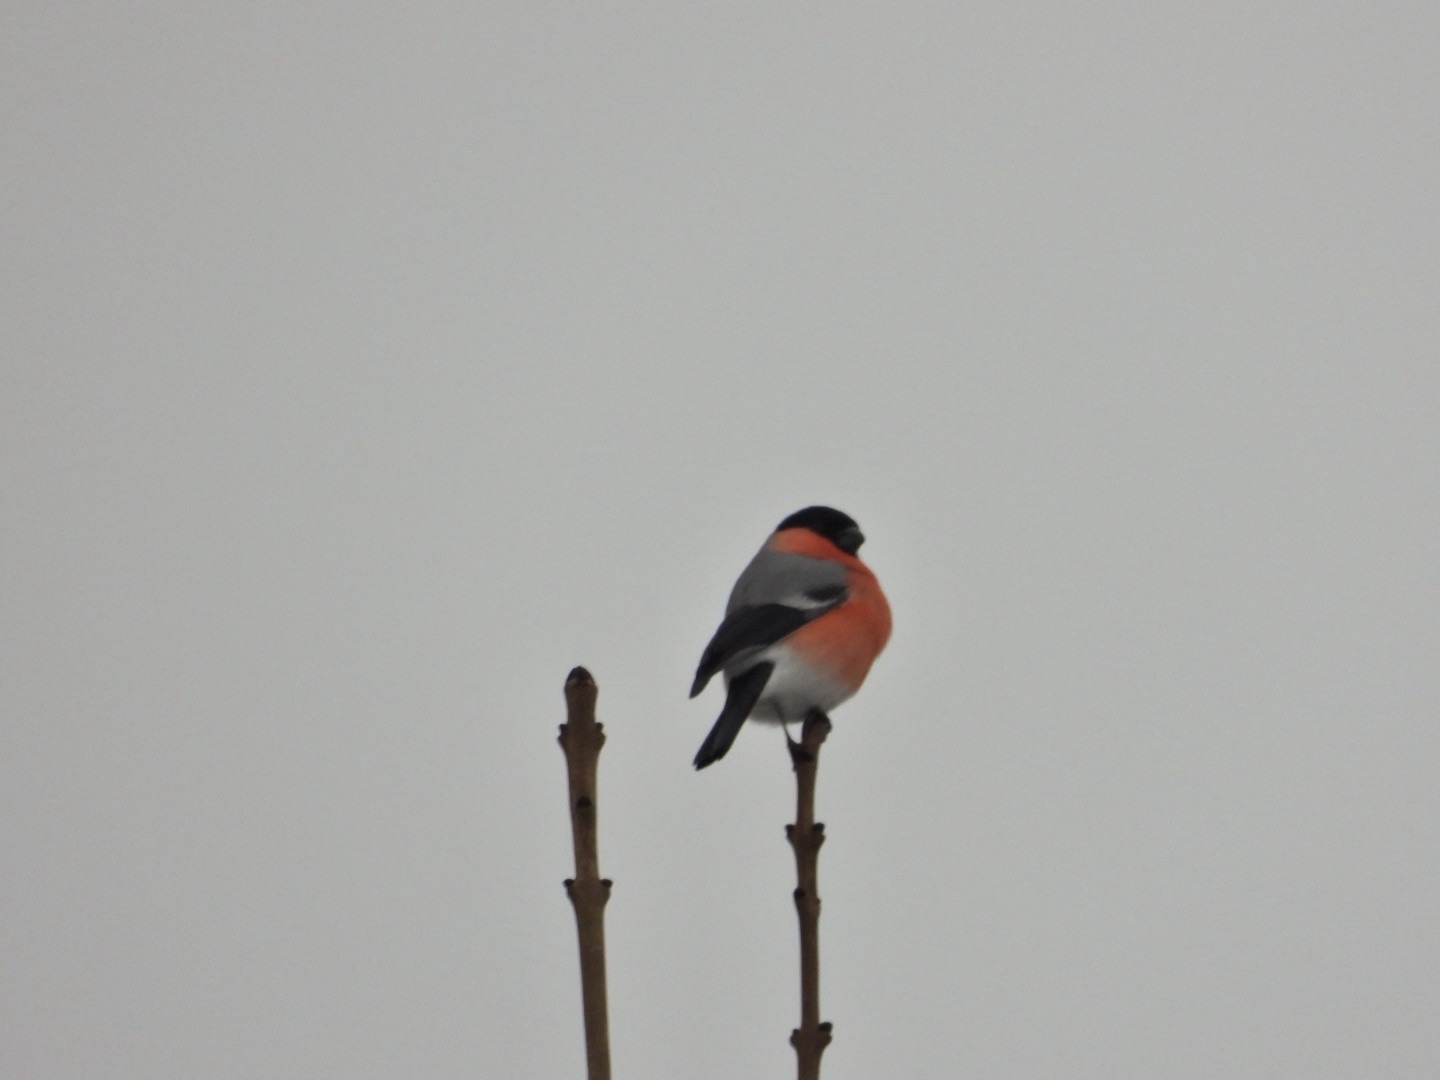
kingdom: Animalia
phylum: Chordata
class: Aves
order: Passeriformes
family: Fringillidae
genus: Pyrrhula
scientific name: Pyrrhula pyrrhula
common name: Dompap
